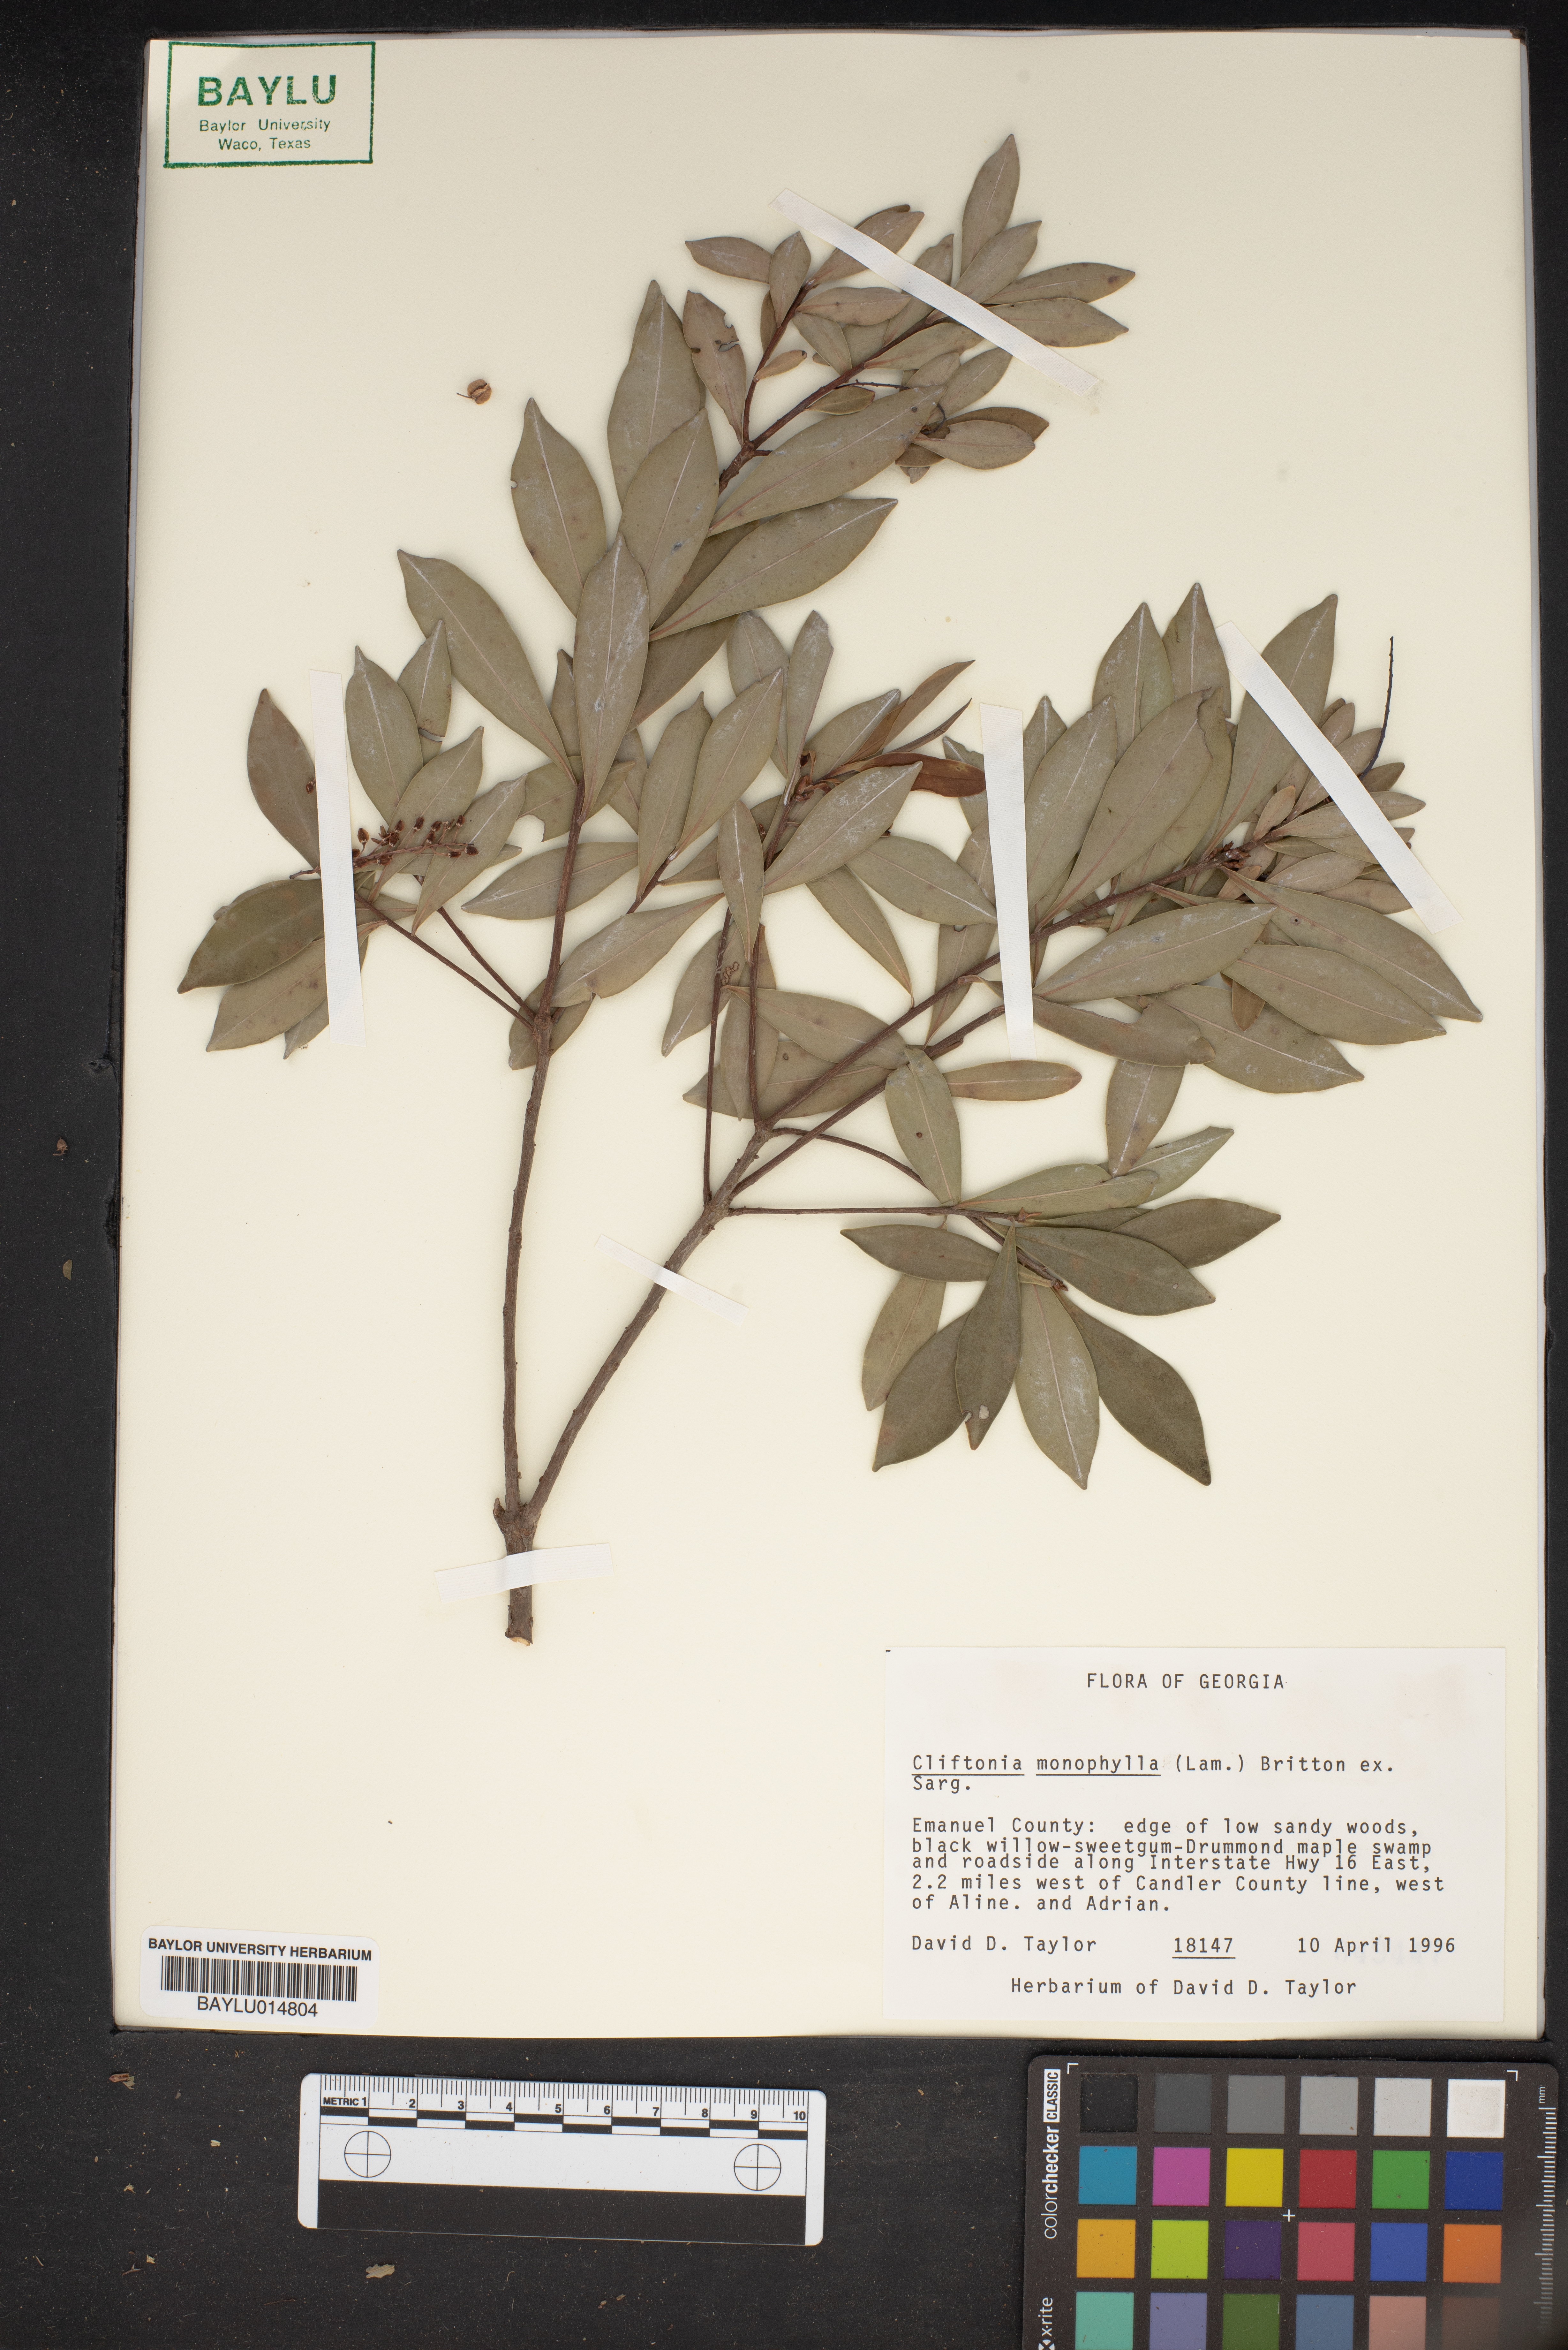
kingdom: Plantae
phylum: Tracheophyta
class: Magnoliopsida
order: Ericales
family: Cyrillaceae
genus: Cliftonia
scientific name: Cliftonia monophylla
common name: Titi
